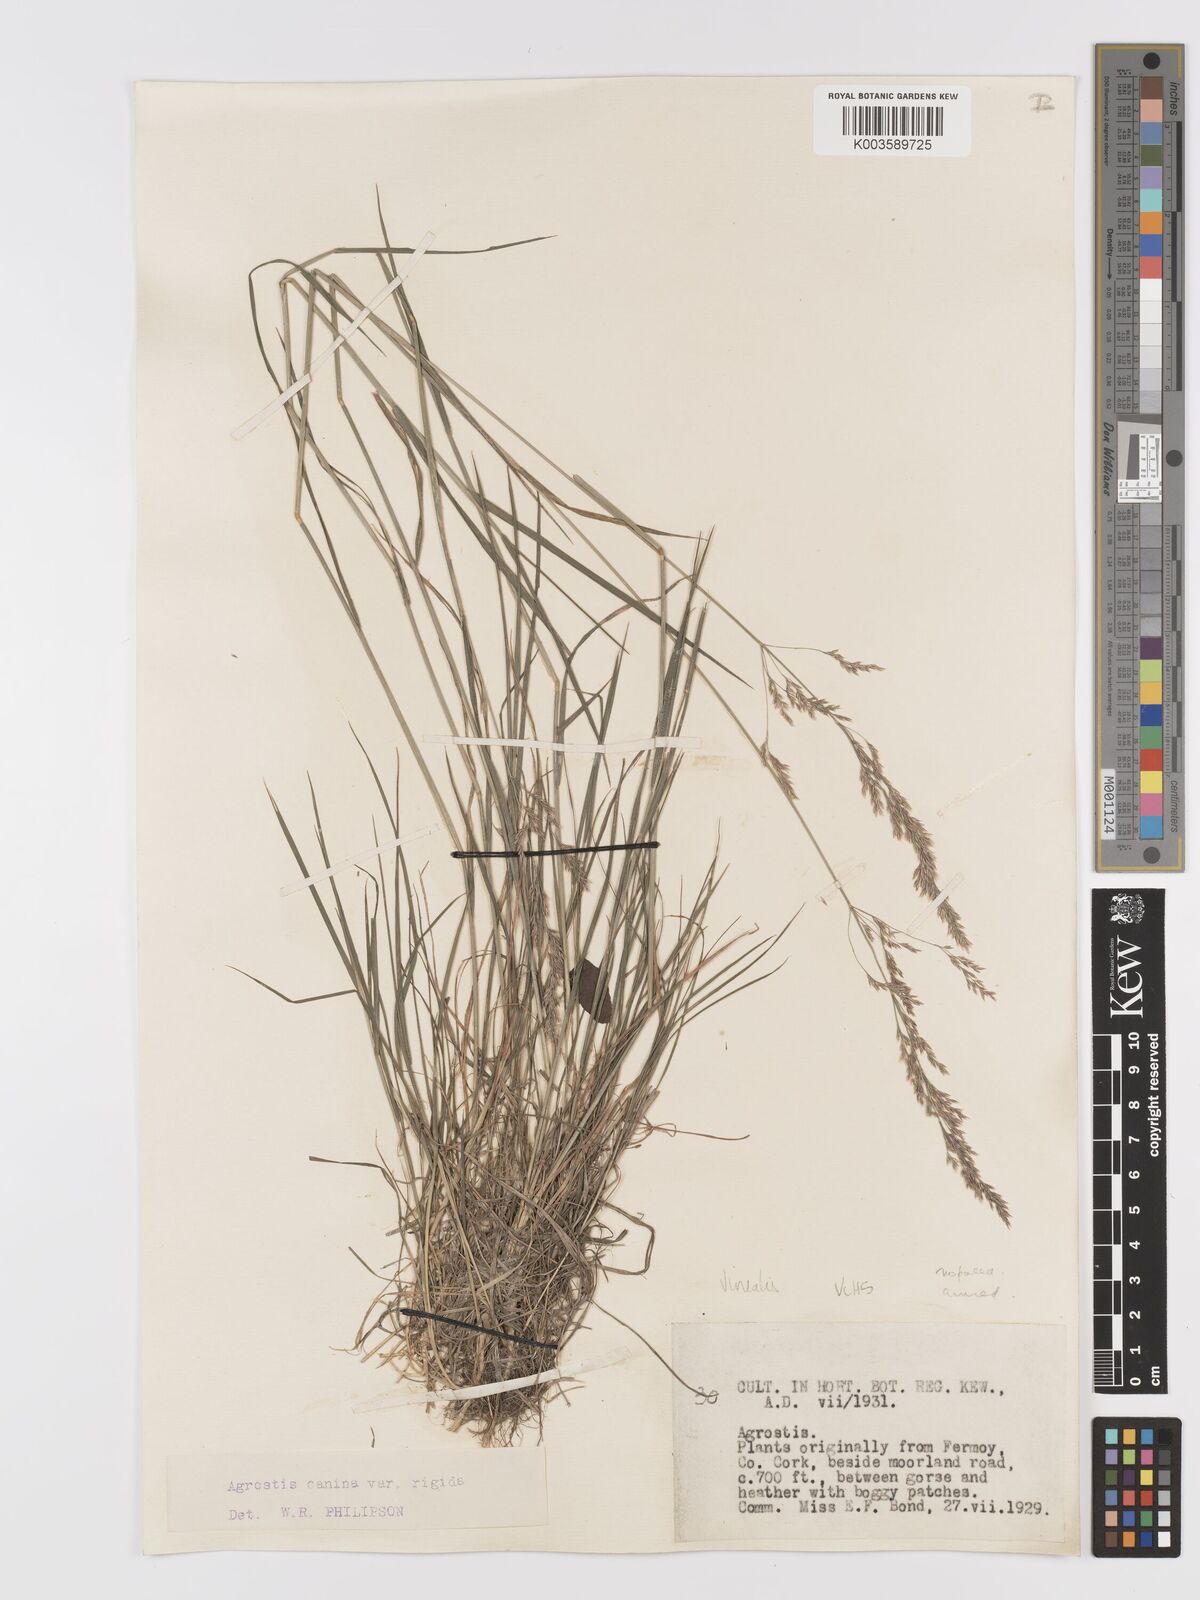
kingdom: Plantae
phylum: Tracheophyta
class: Liliopsida
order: Poales
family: Poaceae
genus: Agrostis
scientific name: Agrostis
